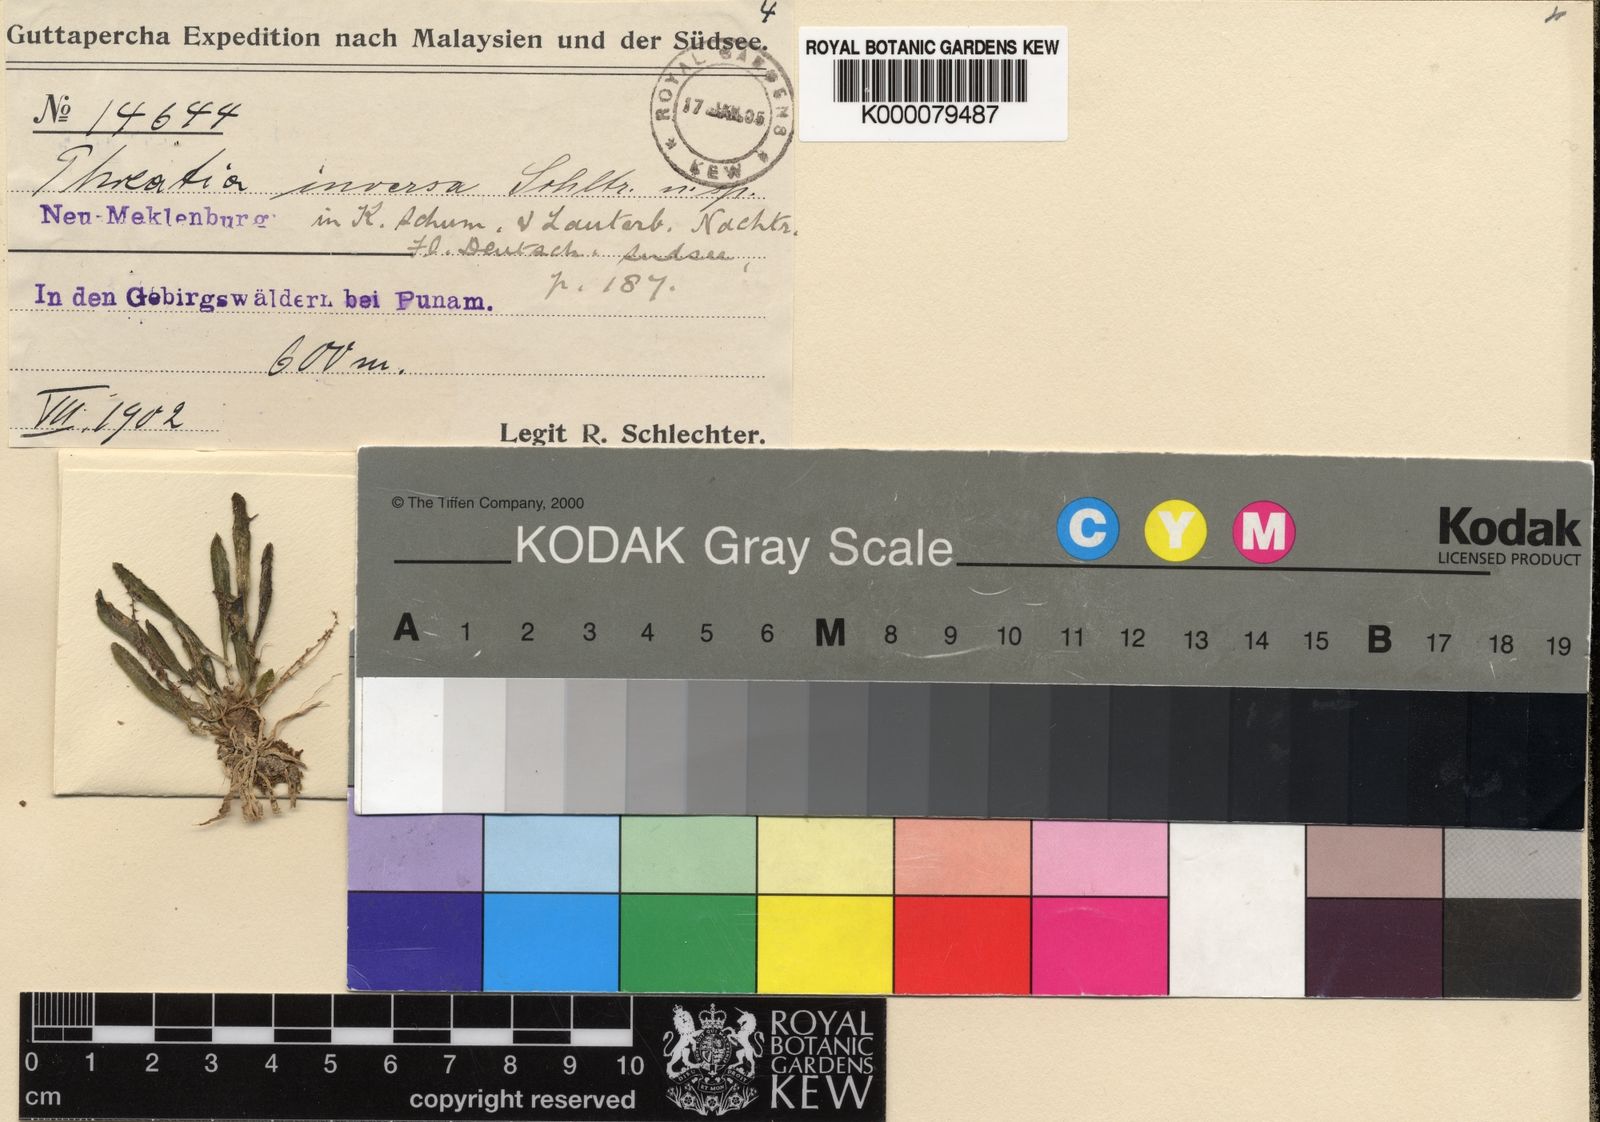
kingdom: Plantae
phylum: Tracheophyta
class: Liliopsida
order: Asparagales
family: Orchidaceae
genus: Phreatia
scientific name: Phreatia crassiuscula
